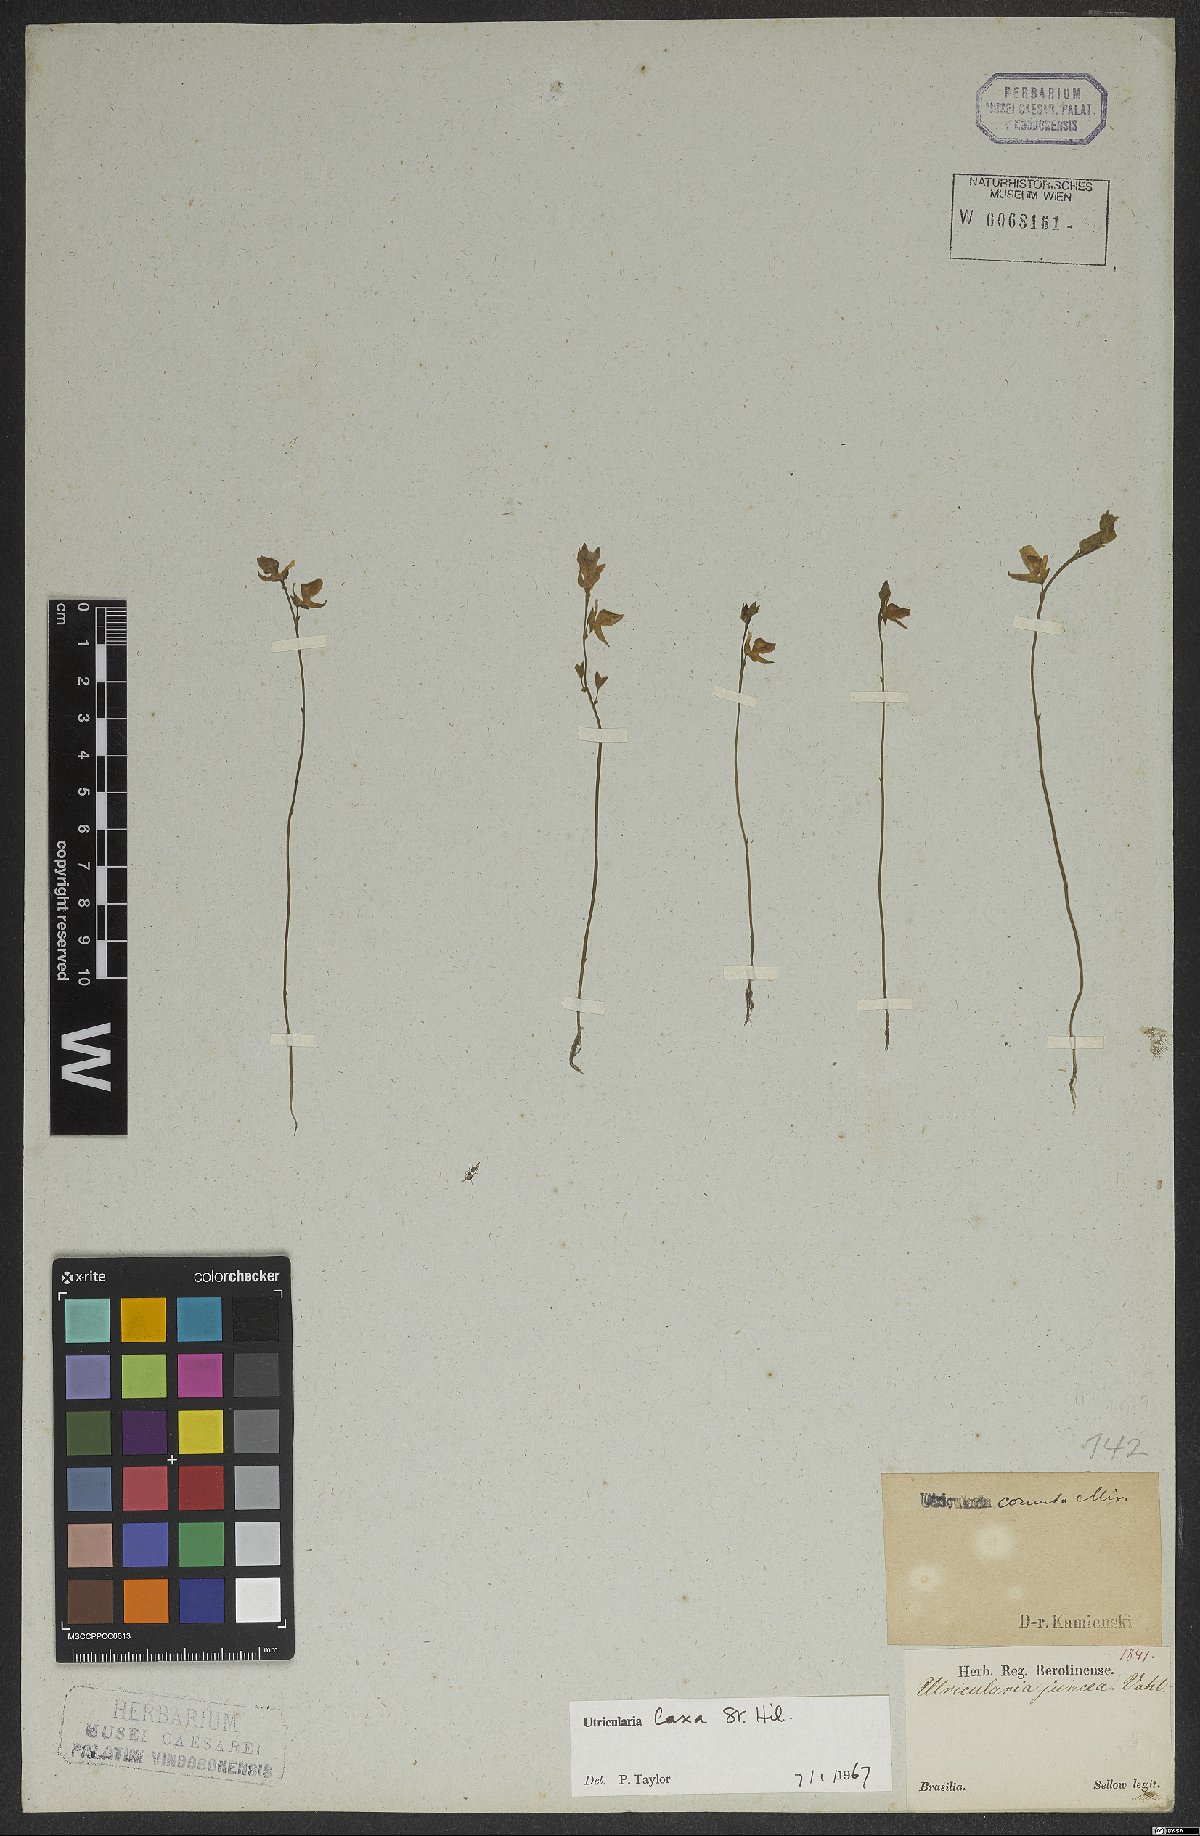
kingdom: Plantae
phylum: Tracheophyta
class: Magnoliopsida
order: Lamiales
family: Lentibulariaceae
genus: Utricularia
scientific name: Utricularia laxa
